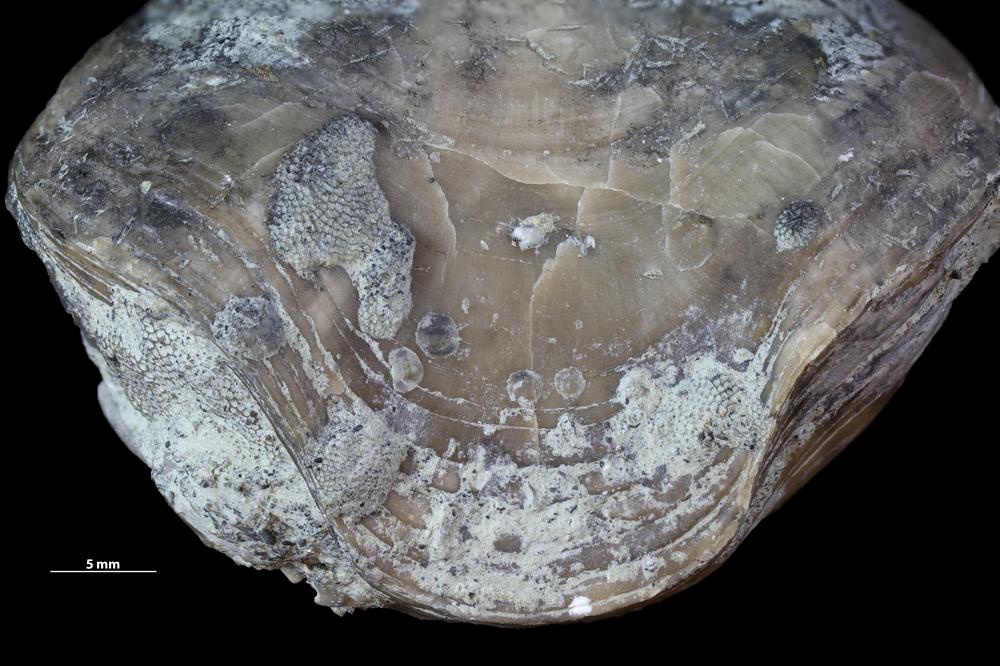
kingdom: Animalia
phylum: Bryozoa
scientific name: Bryozoa
